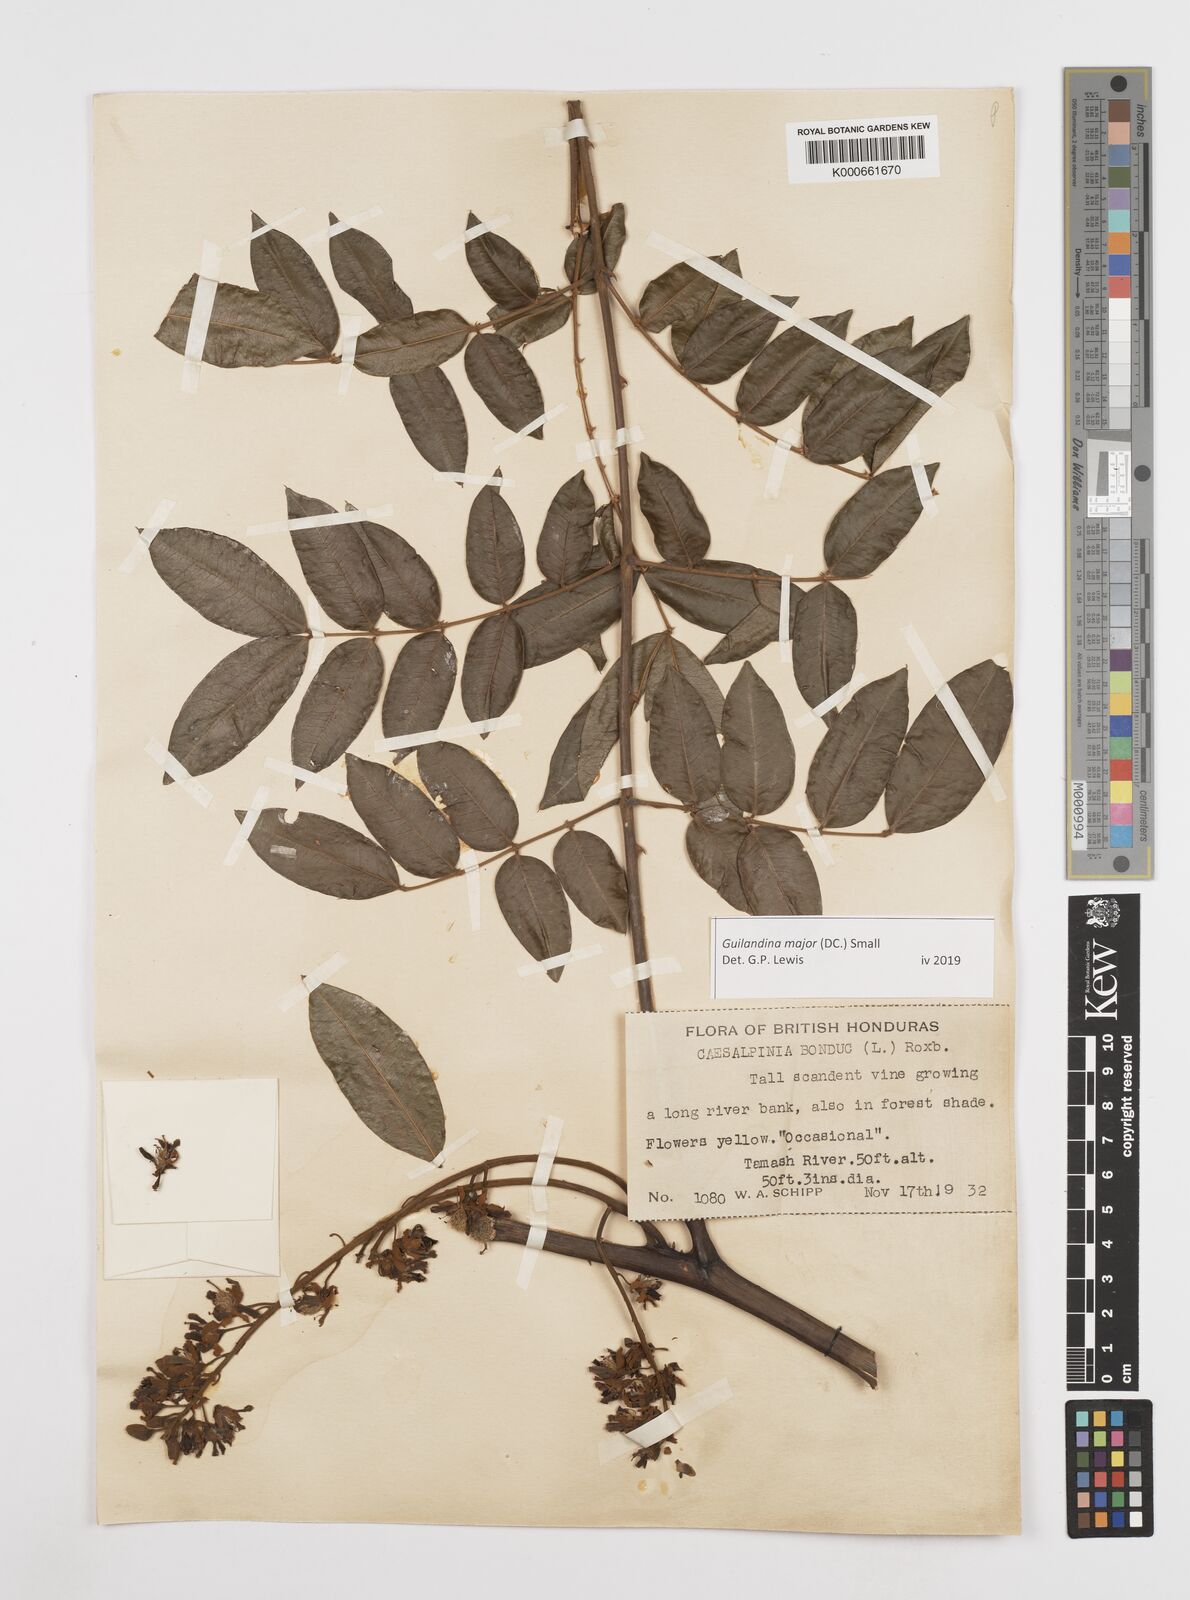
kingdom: Plantae
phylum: Tracheophyta
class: Magnoliopsida
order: Fabales
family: Fabaceae
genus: Guilandina
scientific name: Guilandina major
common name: Hawai'i pearls
